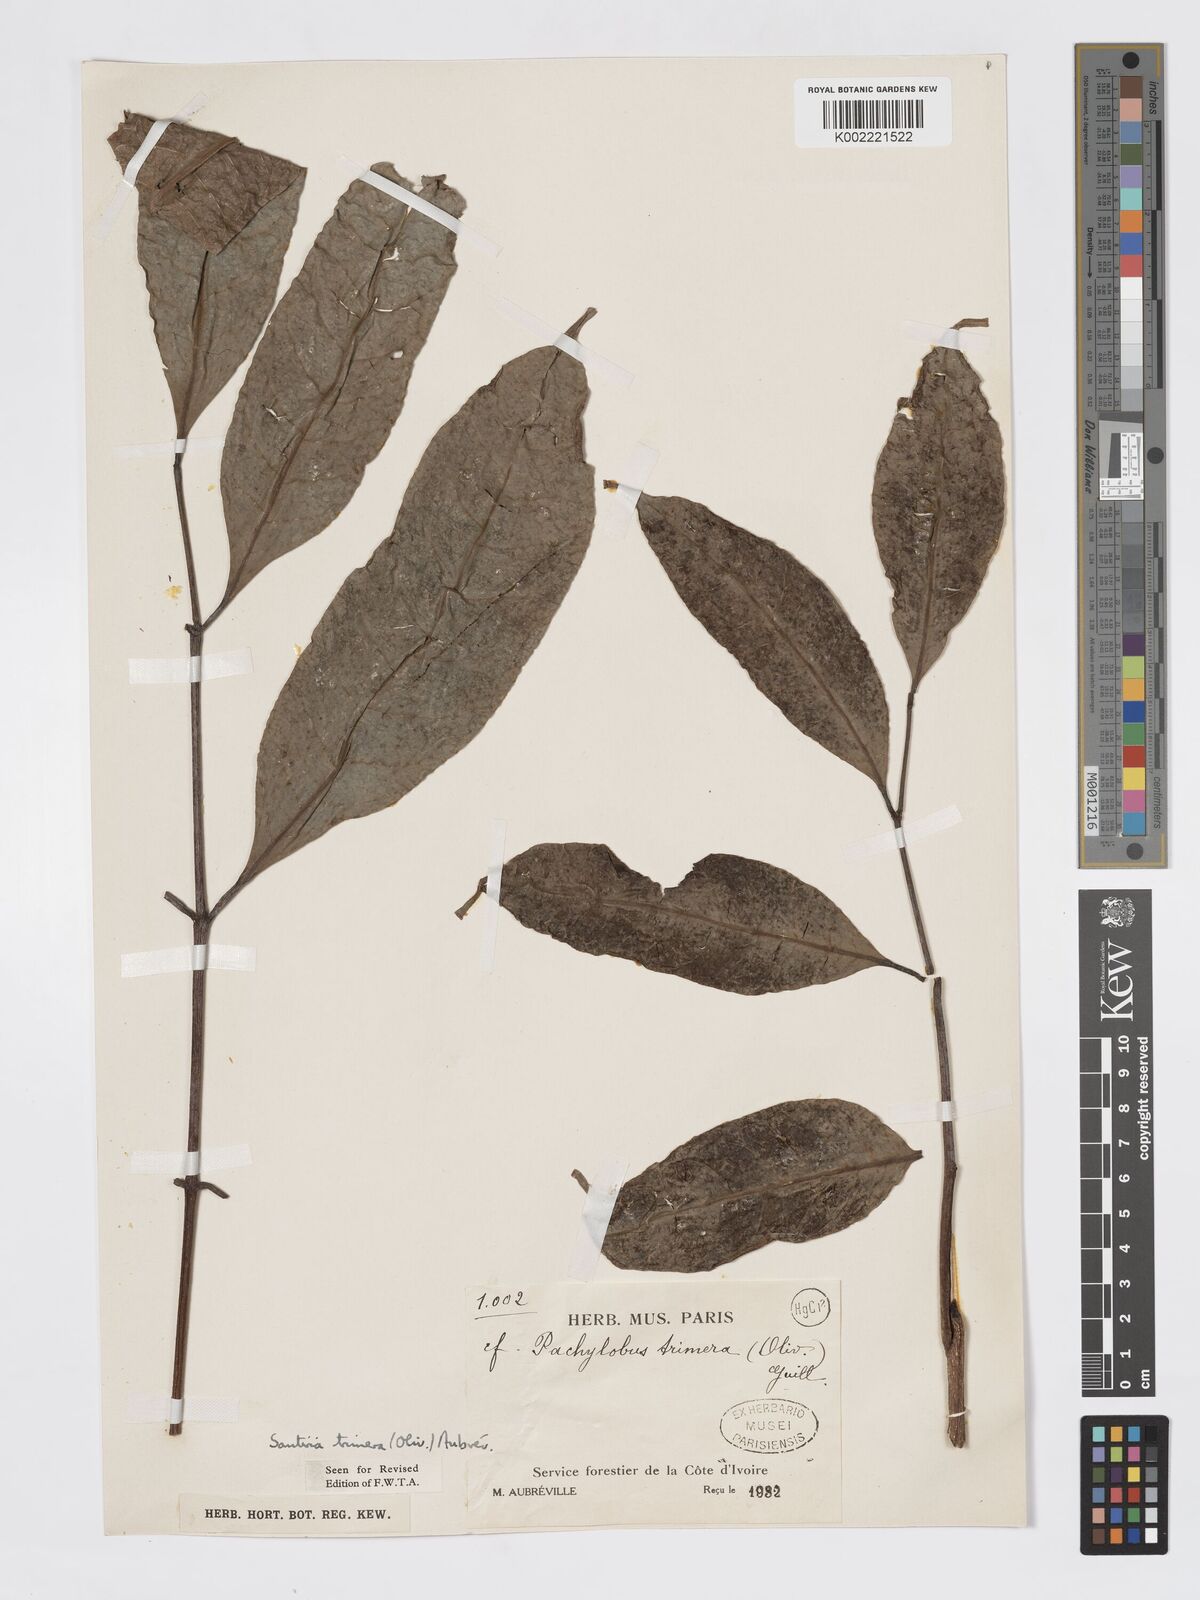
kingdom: Plantae
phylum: Tracheophyta
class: Magnoliopsida
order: Sapindales
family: Burseraceae
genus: Pachylobus
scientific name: Pachylobus trimerus
